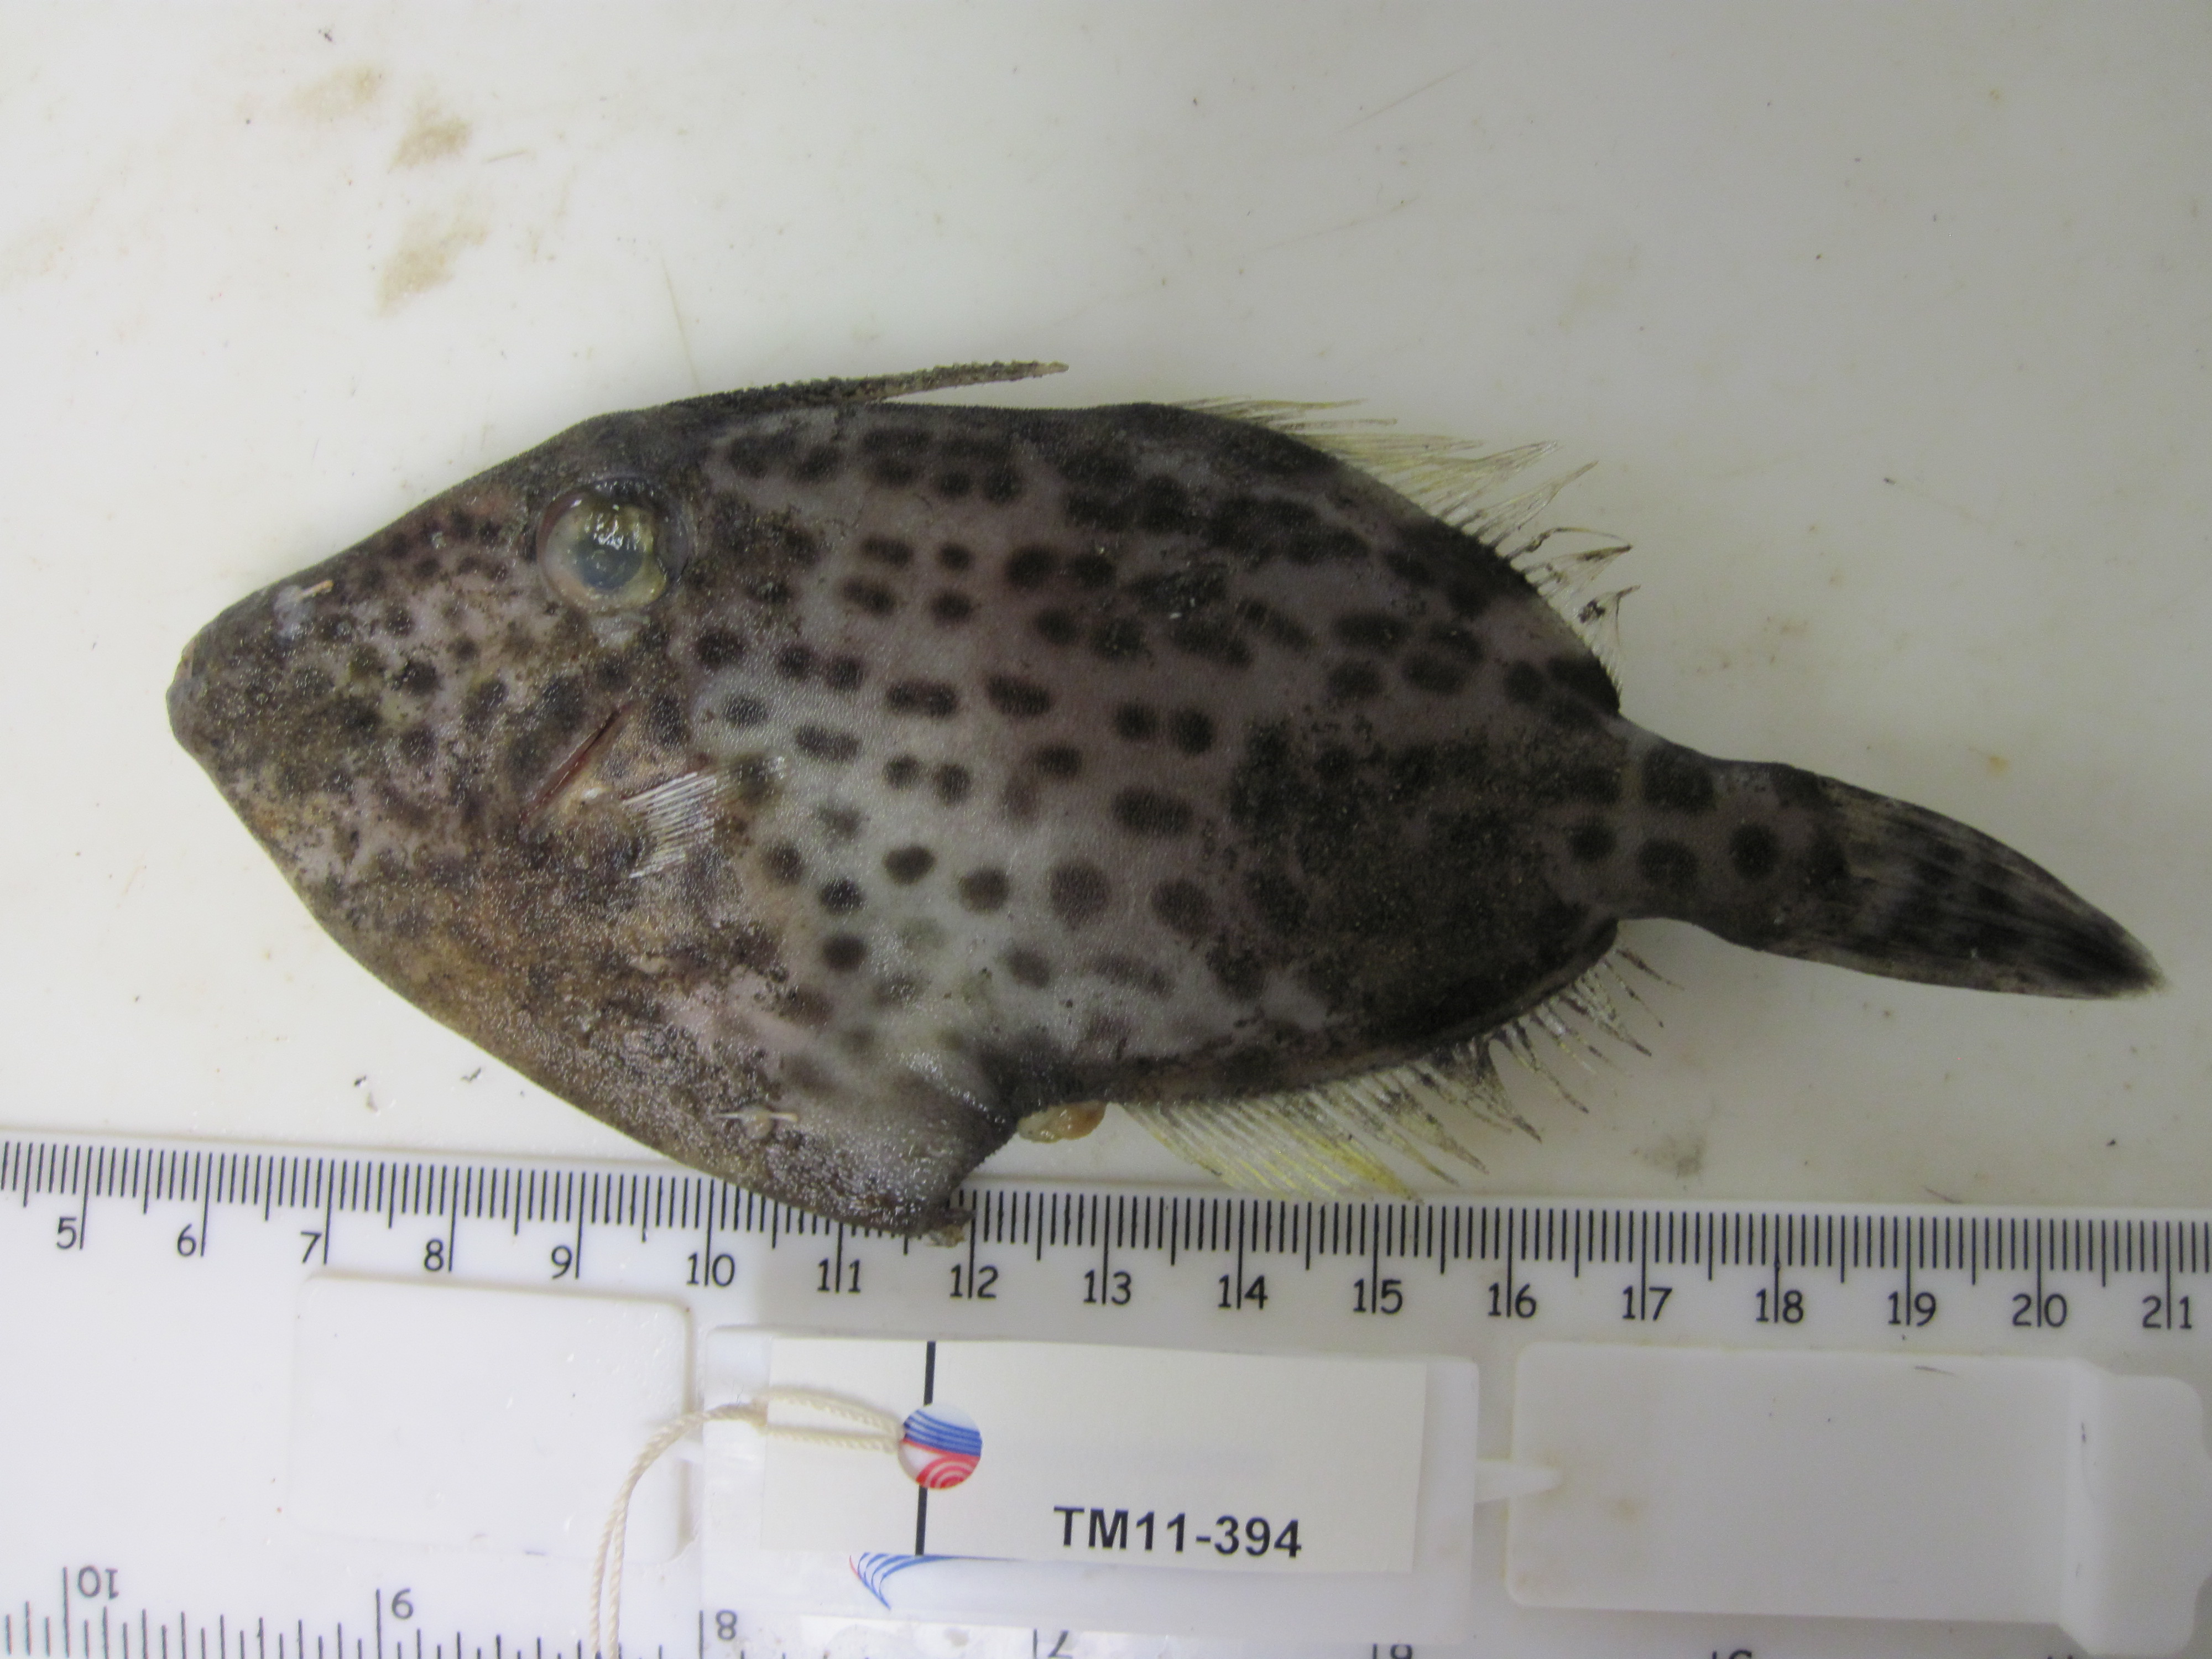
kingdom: Animalia
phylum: Chordata
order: Tetraodontiformes
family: Monacanthidae
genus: Thamnaconus
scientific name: Thamnaconus fajardoi
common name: Spotted filefish
